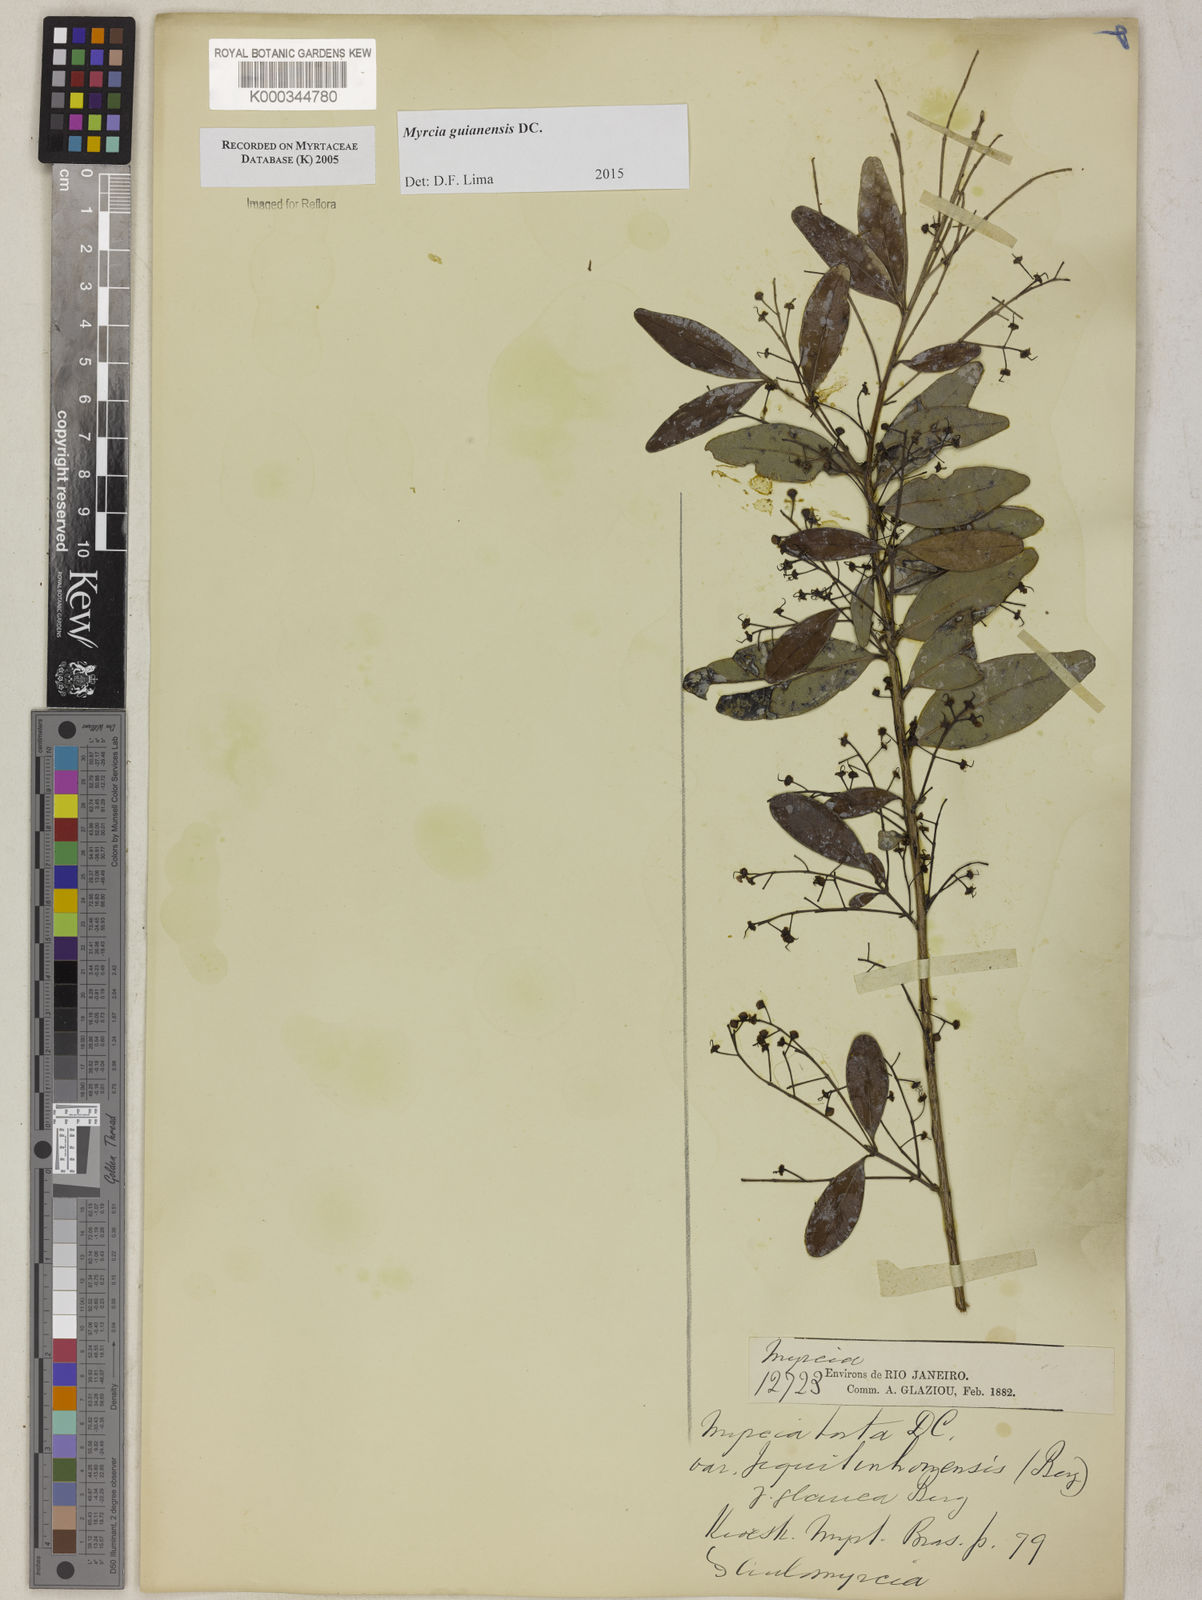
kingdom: Plantae
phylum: Tracheophyta
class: Magnoliopsida
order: Myrtales
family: Myrtaceae
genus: Myrcia
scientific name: Myrcia guianensis
